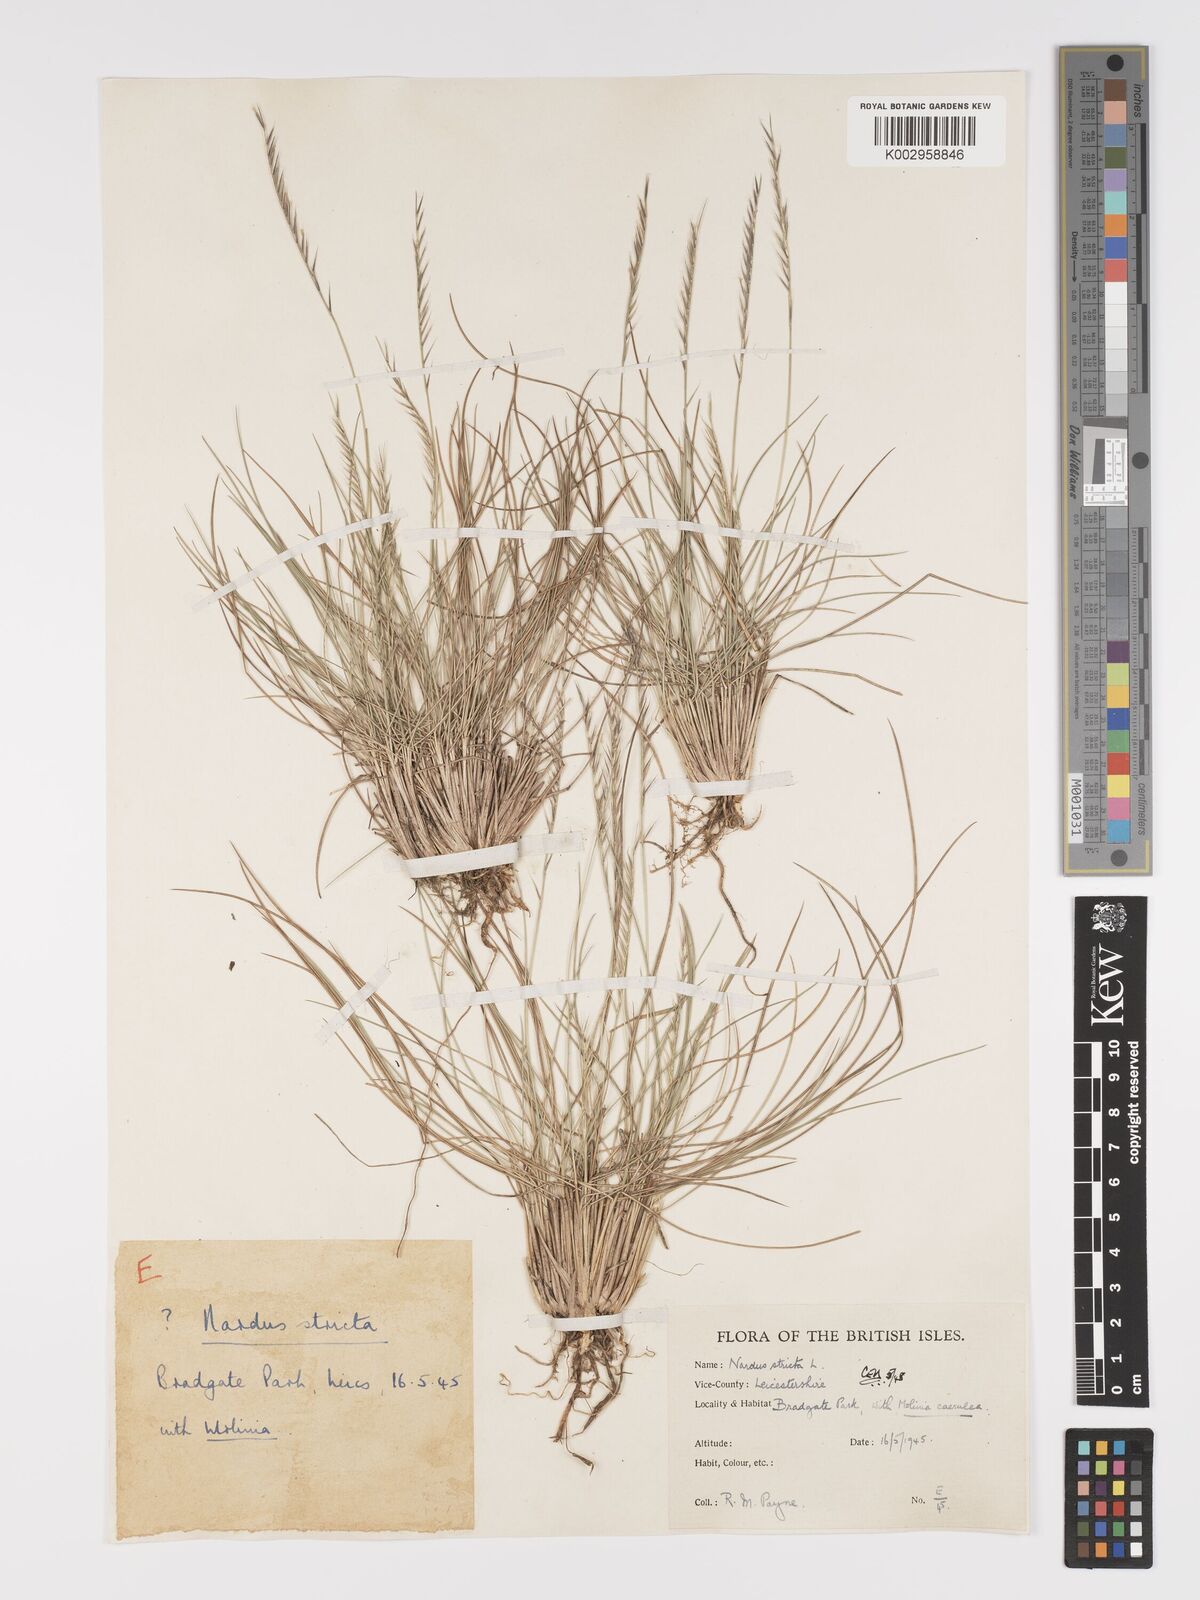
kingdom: Plantae
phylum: Tracheophyta
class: Liliopsida
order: Poales
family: Poaceae
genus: Nardus
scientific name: Nardus stricta
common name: Mat-grass
